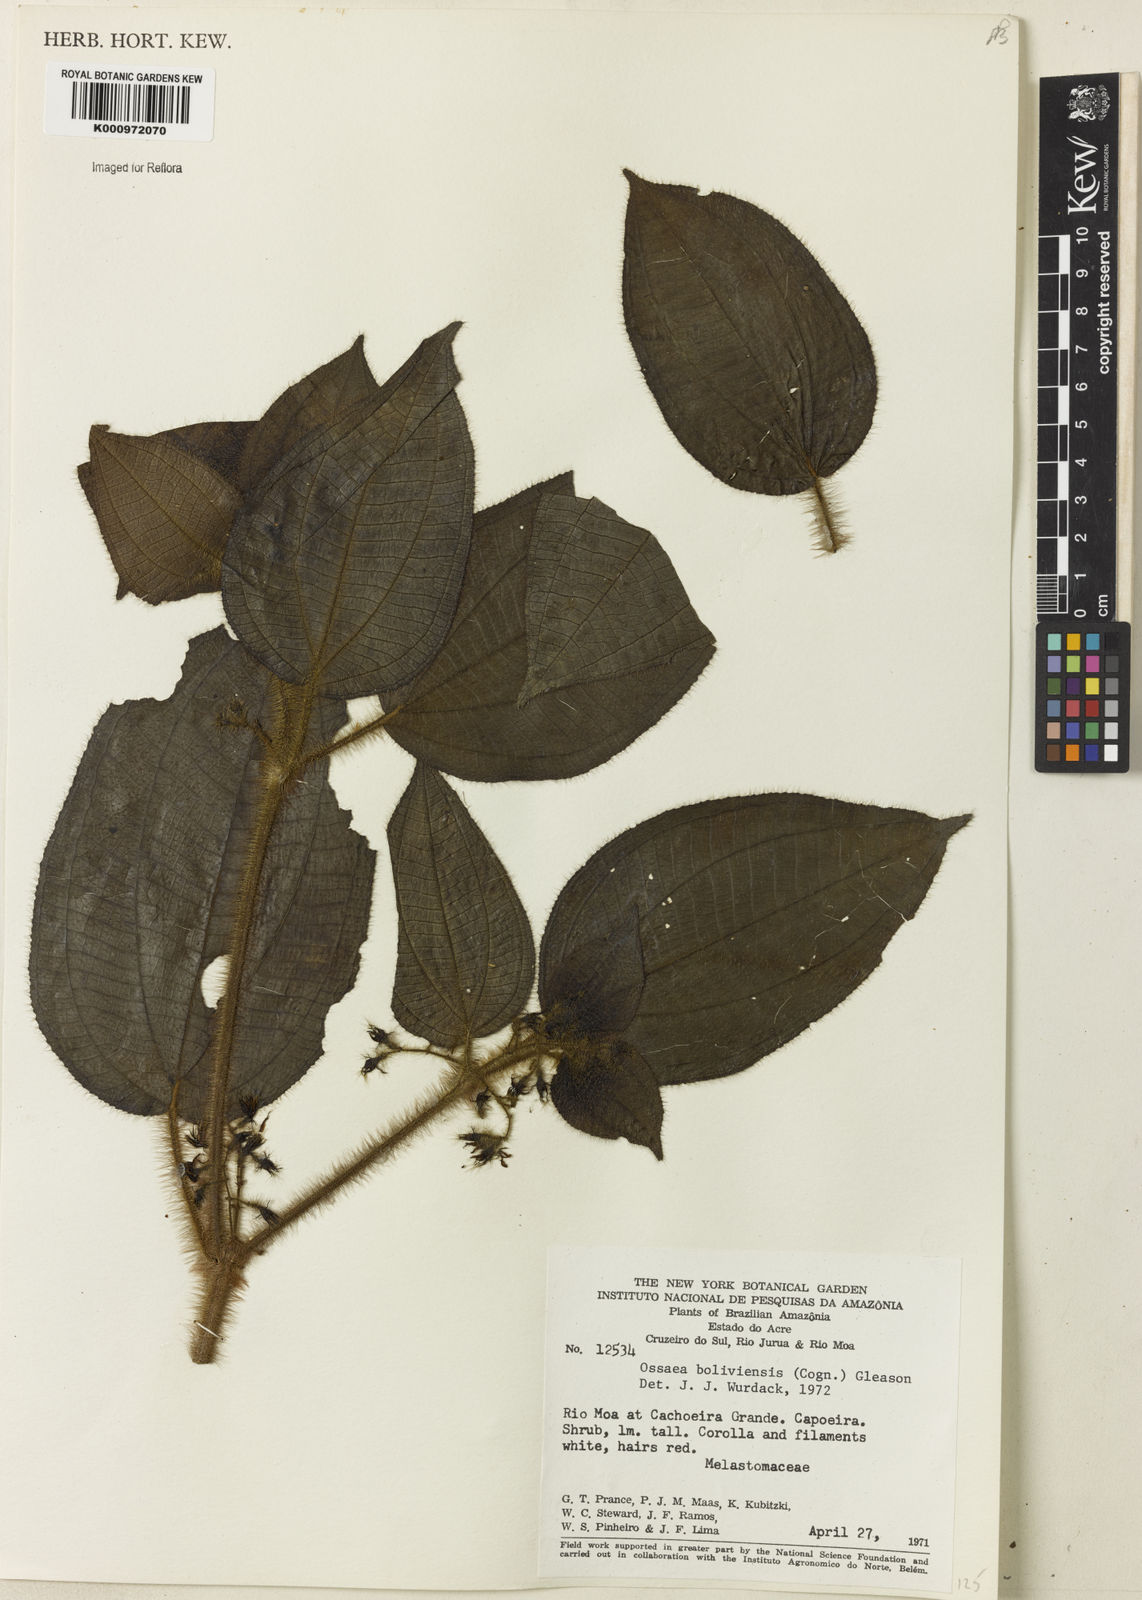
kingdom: Plantae
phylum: Tracheophyta
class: Magnoliopsida
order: Myrtales
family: Melastomataceae
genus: Miconia
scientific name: Miconia violascens
